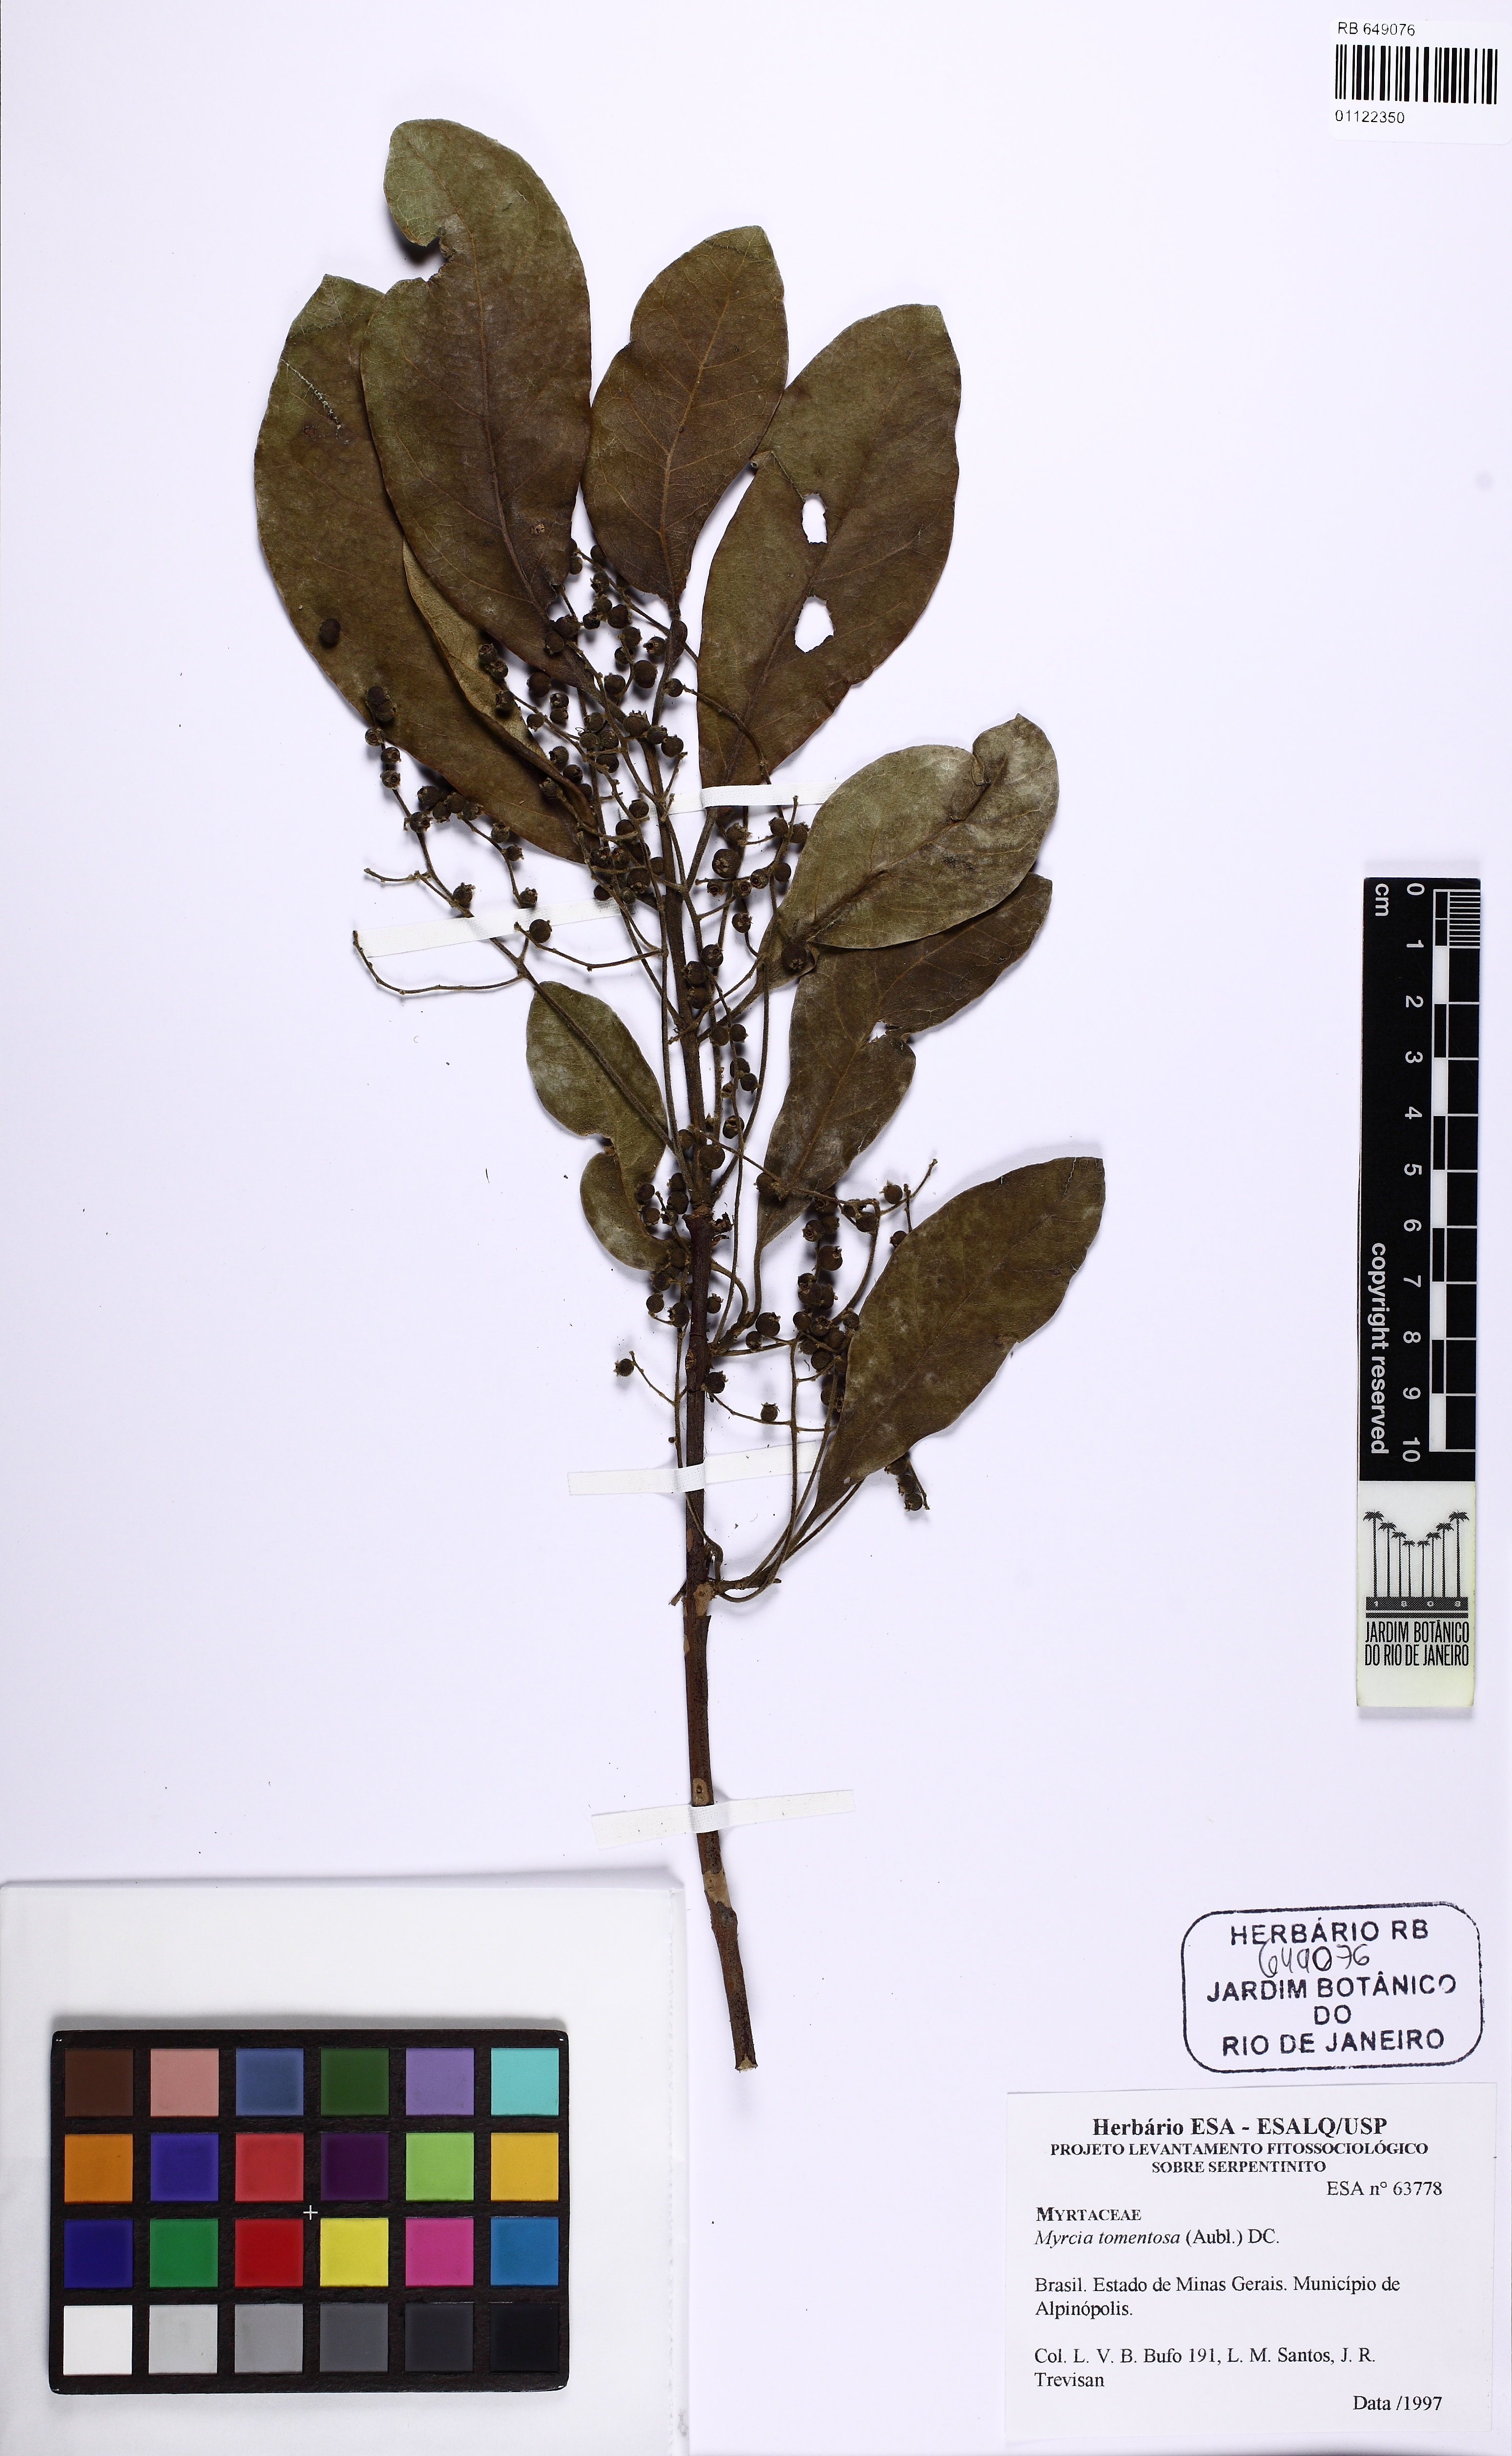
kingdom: Plantae
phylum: Tracheophyta
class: Magnoliopsida
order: Myrtales
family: Myrtaceae
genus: Myrcia
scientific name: Myrcia tomentosa
